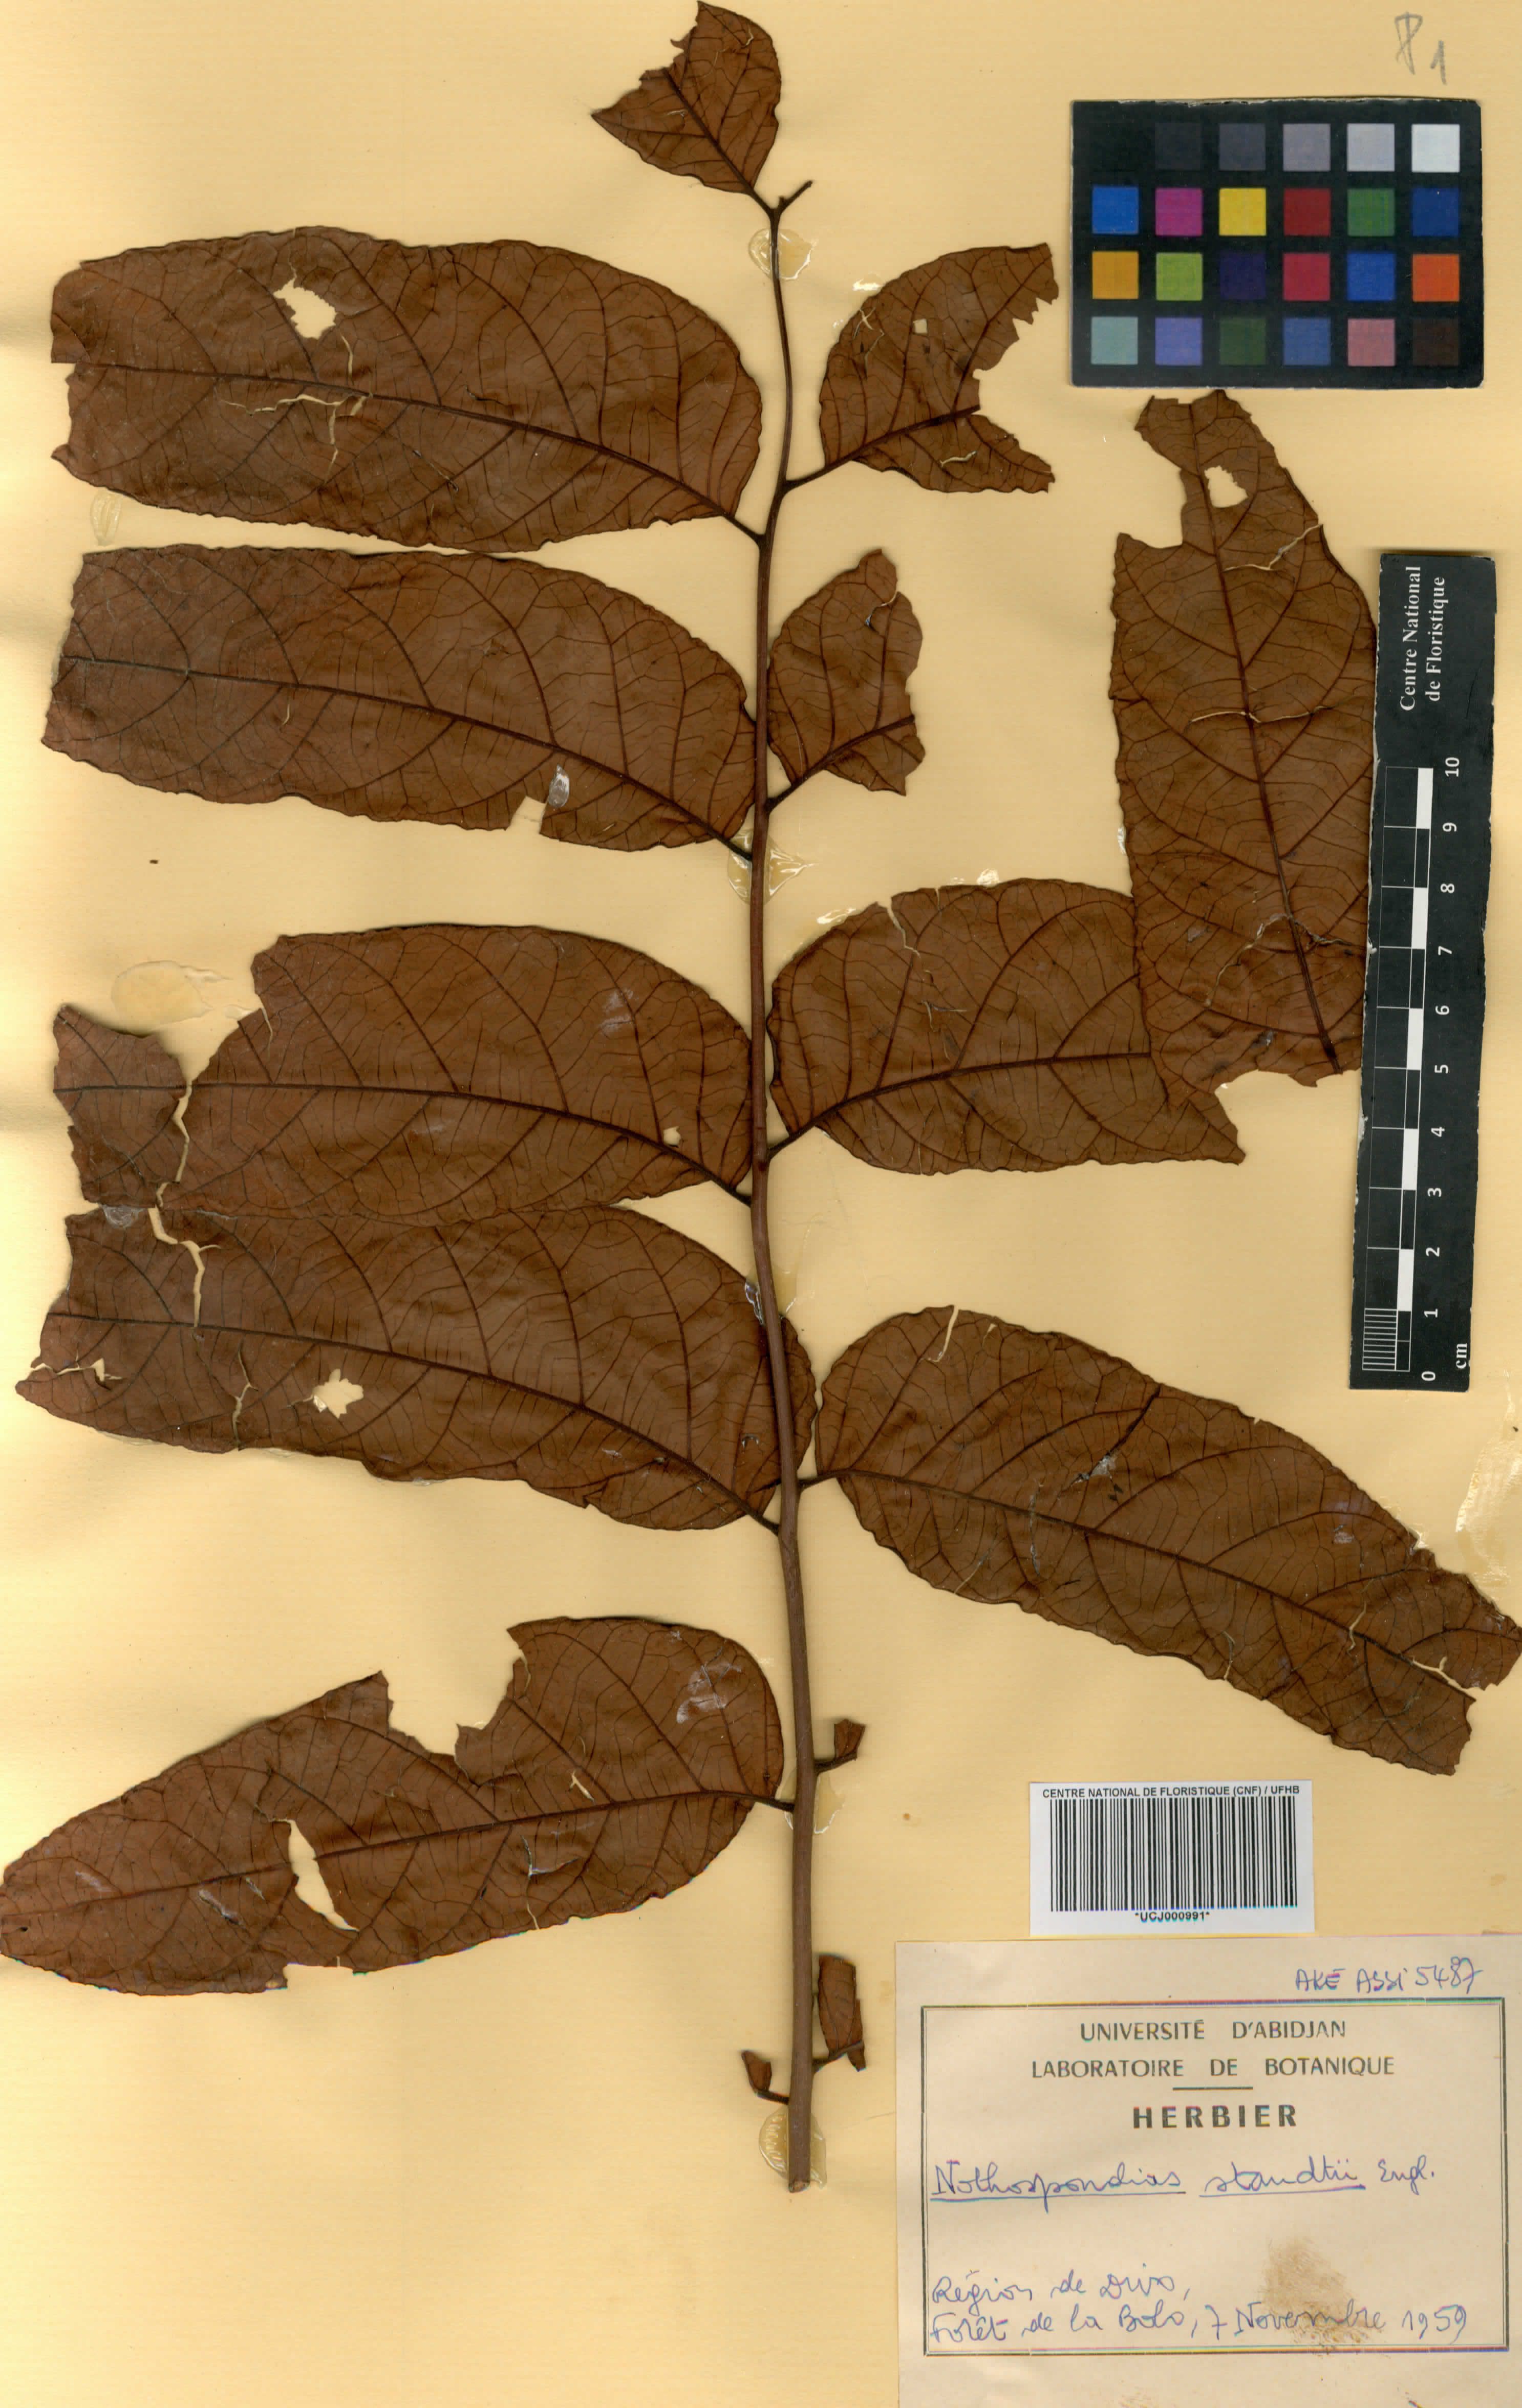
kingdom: Plantae
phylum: Tracheophyta
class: Magnoliopsida
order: Sapindales
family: Simaroubaceae
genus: Nothospondias
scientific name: Nothospondias staudtii
